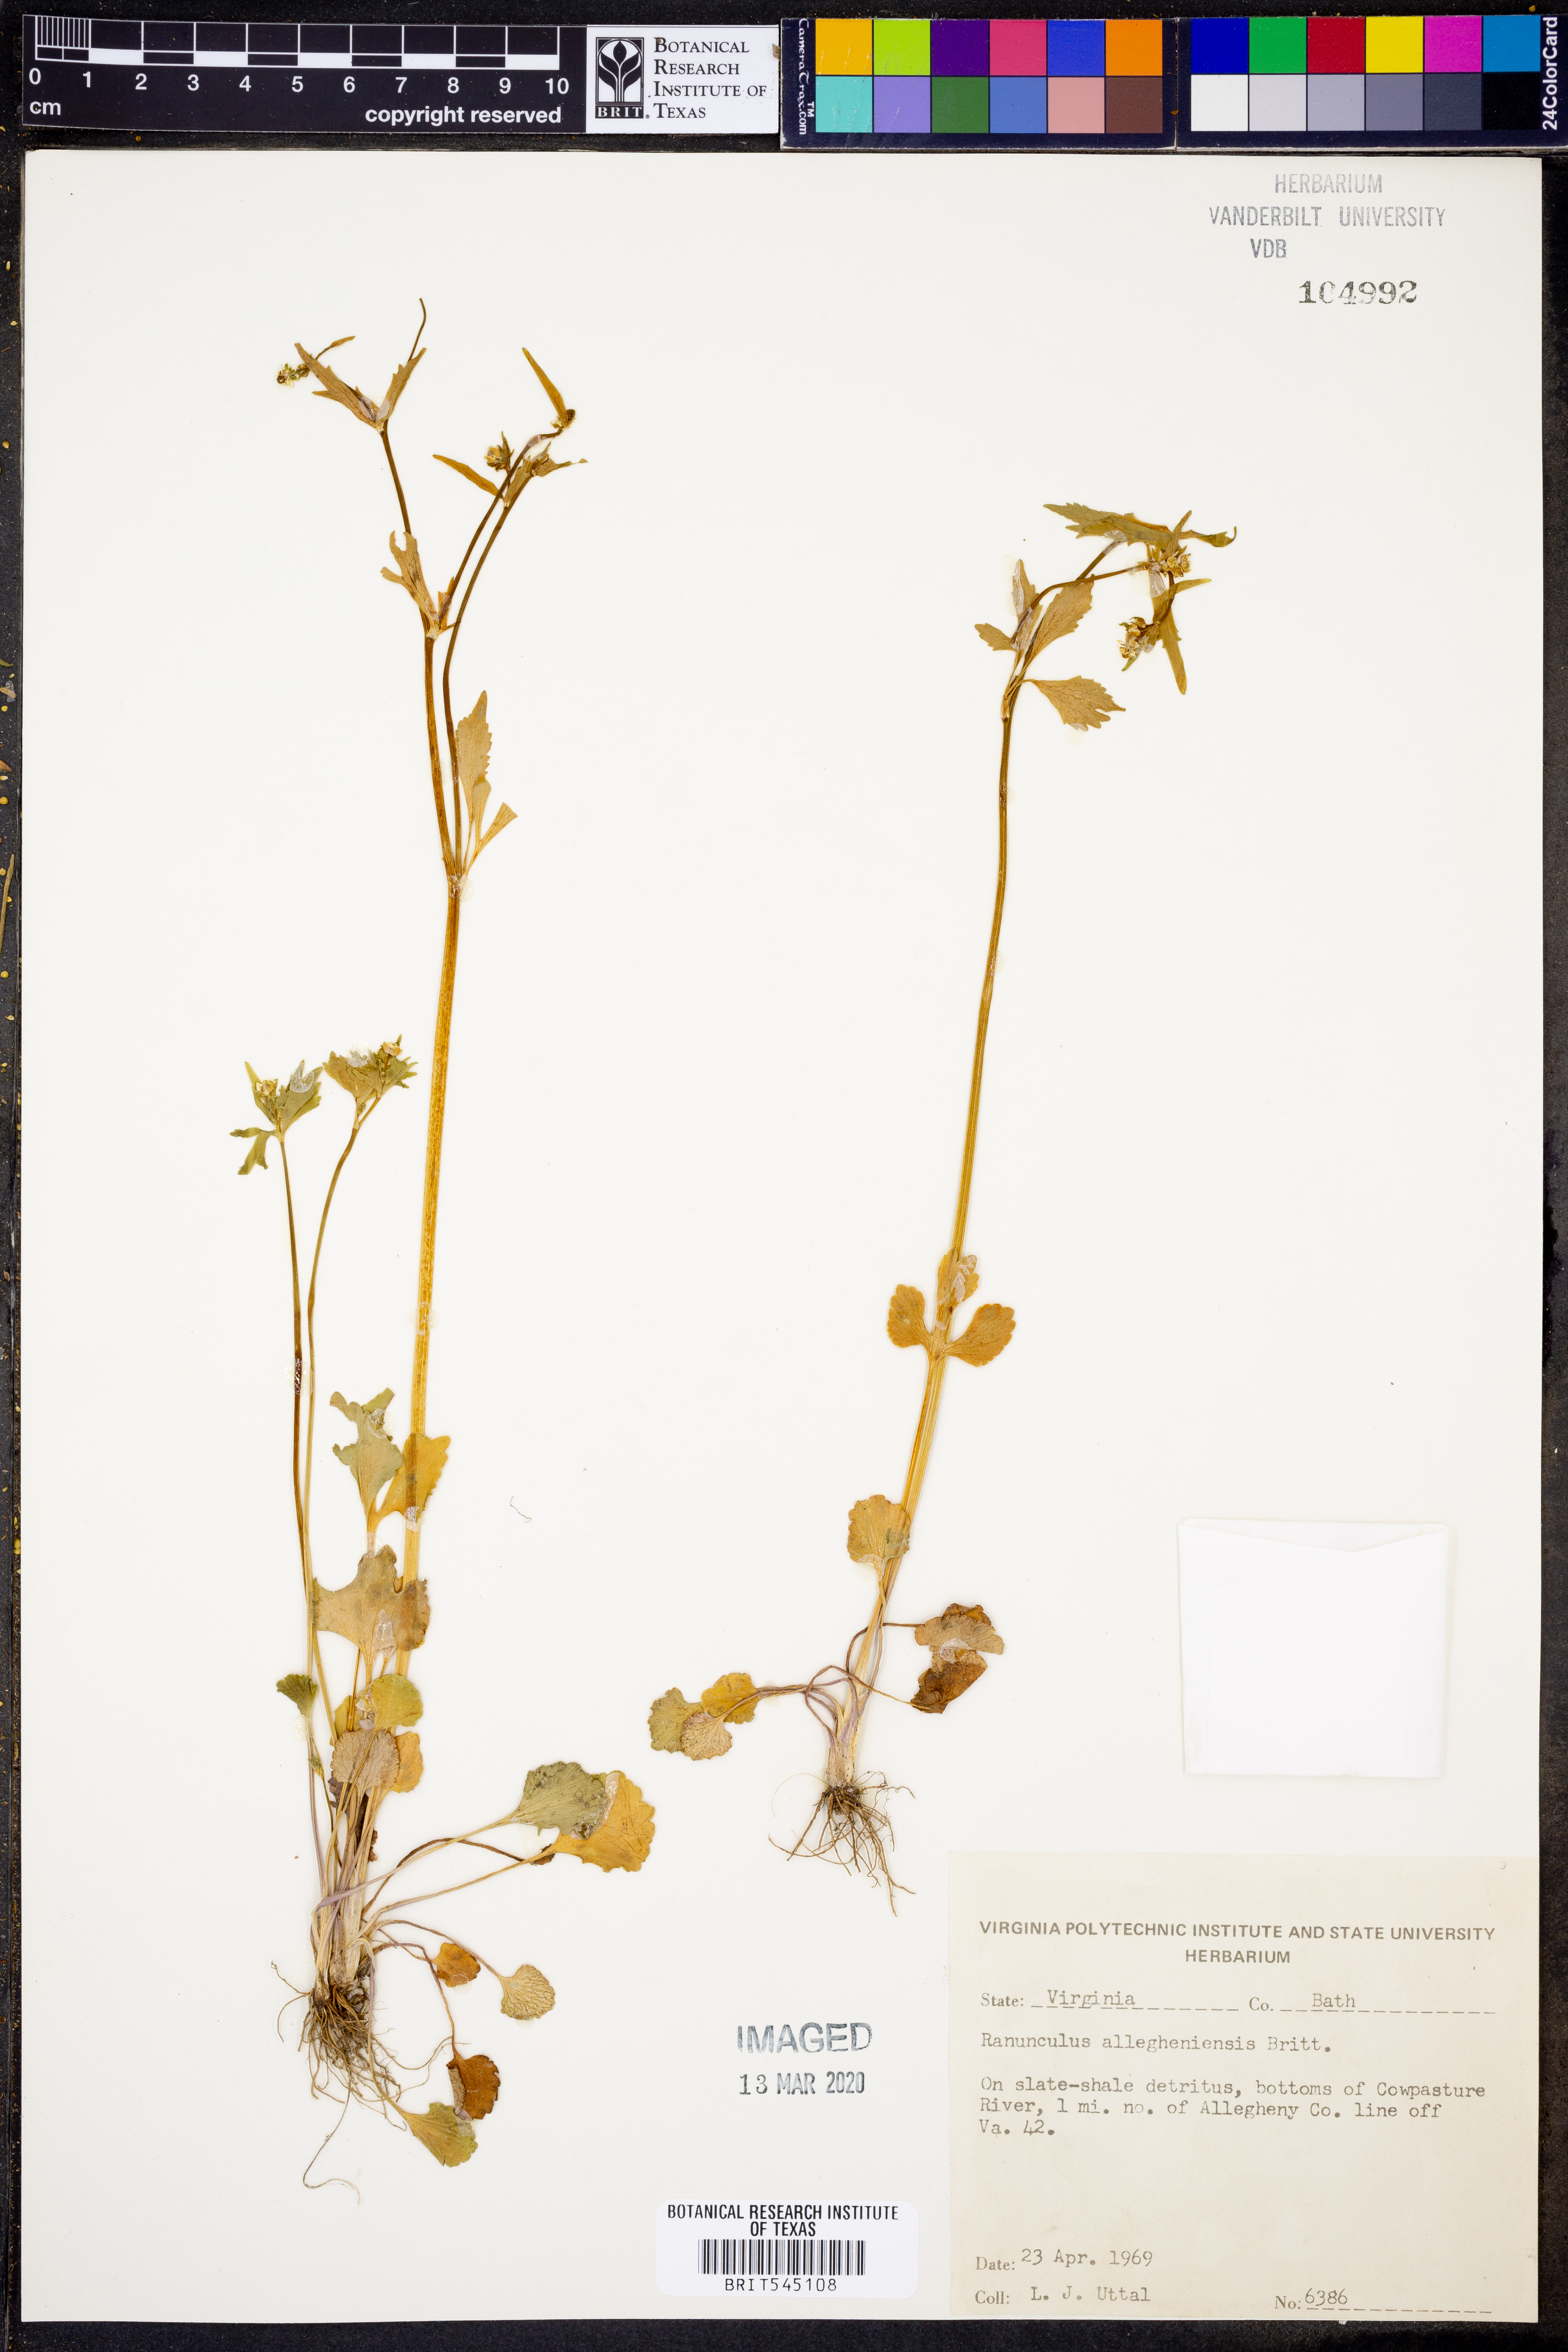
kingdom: Plantae
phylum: Tracheophyta
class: Magnoliopsida
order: Ranunculales
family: Ranunculaceae
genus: Ranunculus
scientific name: Ranunculus allegheniensis
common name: Allegheny mountain buttercup
